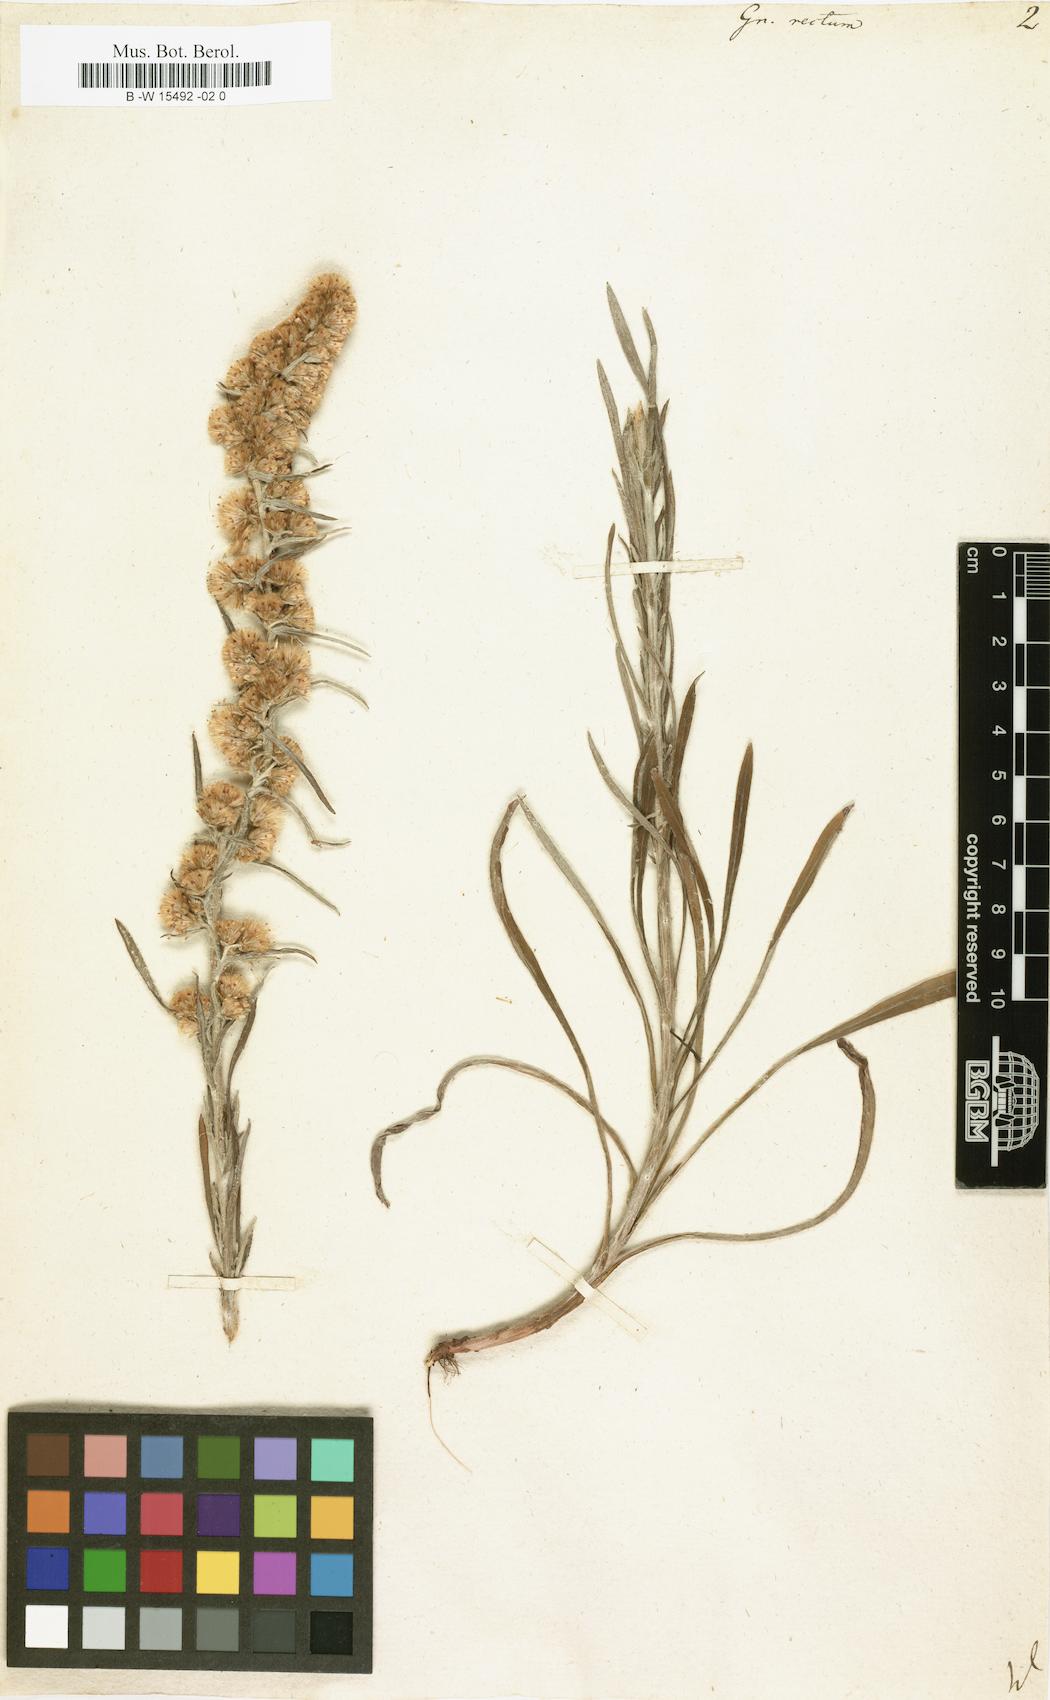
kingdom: Plantae
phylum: Tracheophyta
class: Magnoliopsida
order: Asterales
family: Asteraceae
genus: Omalotheca
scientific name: Omalotheca
